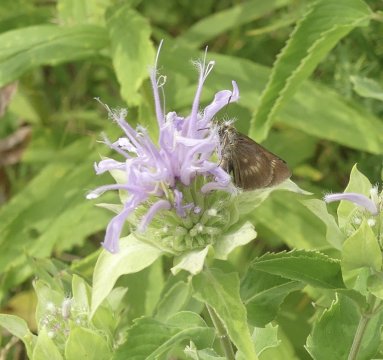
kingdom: Animalia
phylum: Arthropoda
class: Insecta
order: Lepidoptera
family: Hesperiidae
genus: Polites
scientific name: Polites egeremet
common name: Northern Broken-Dash
